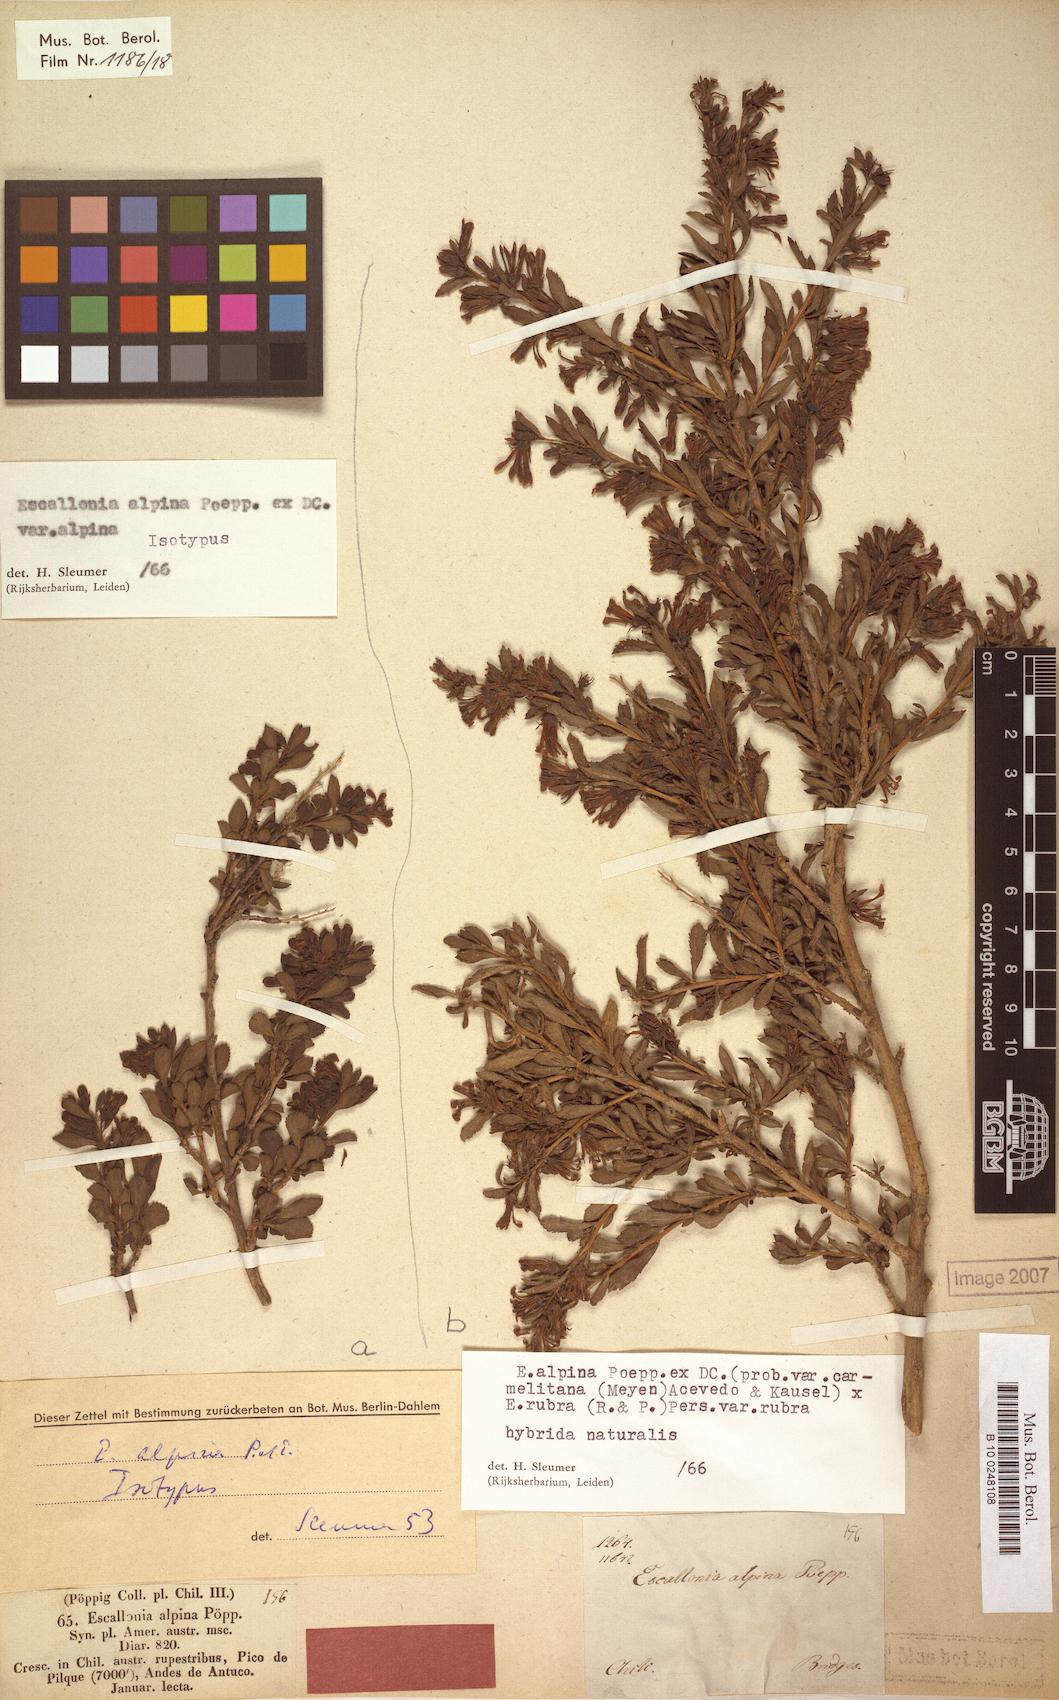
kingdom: Plantae
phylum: Tracheophyta
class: Magnoliopsida
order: Escalloniales
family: Escalloniaceae
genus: Escallonia
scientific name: Escallonia alpina
